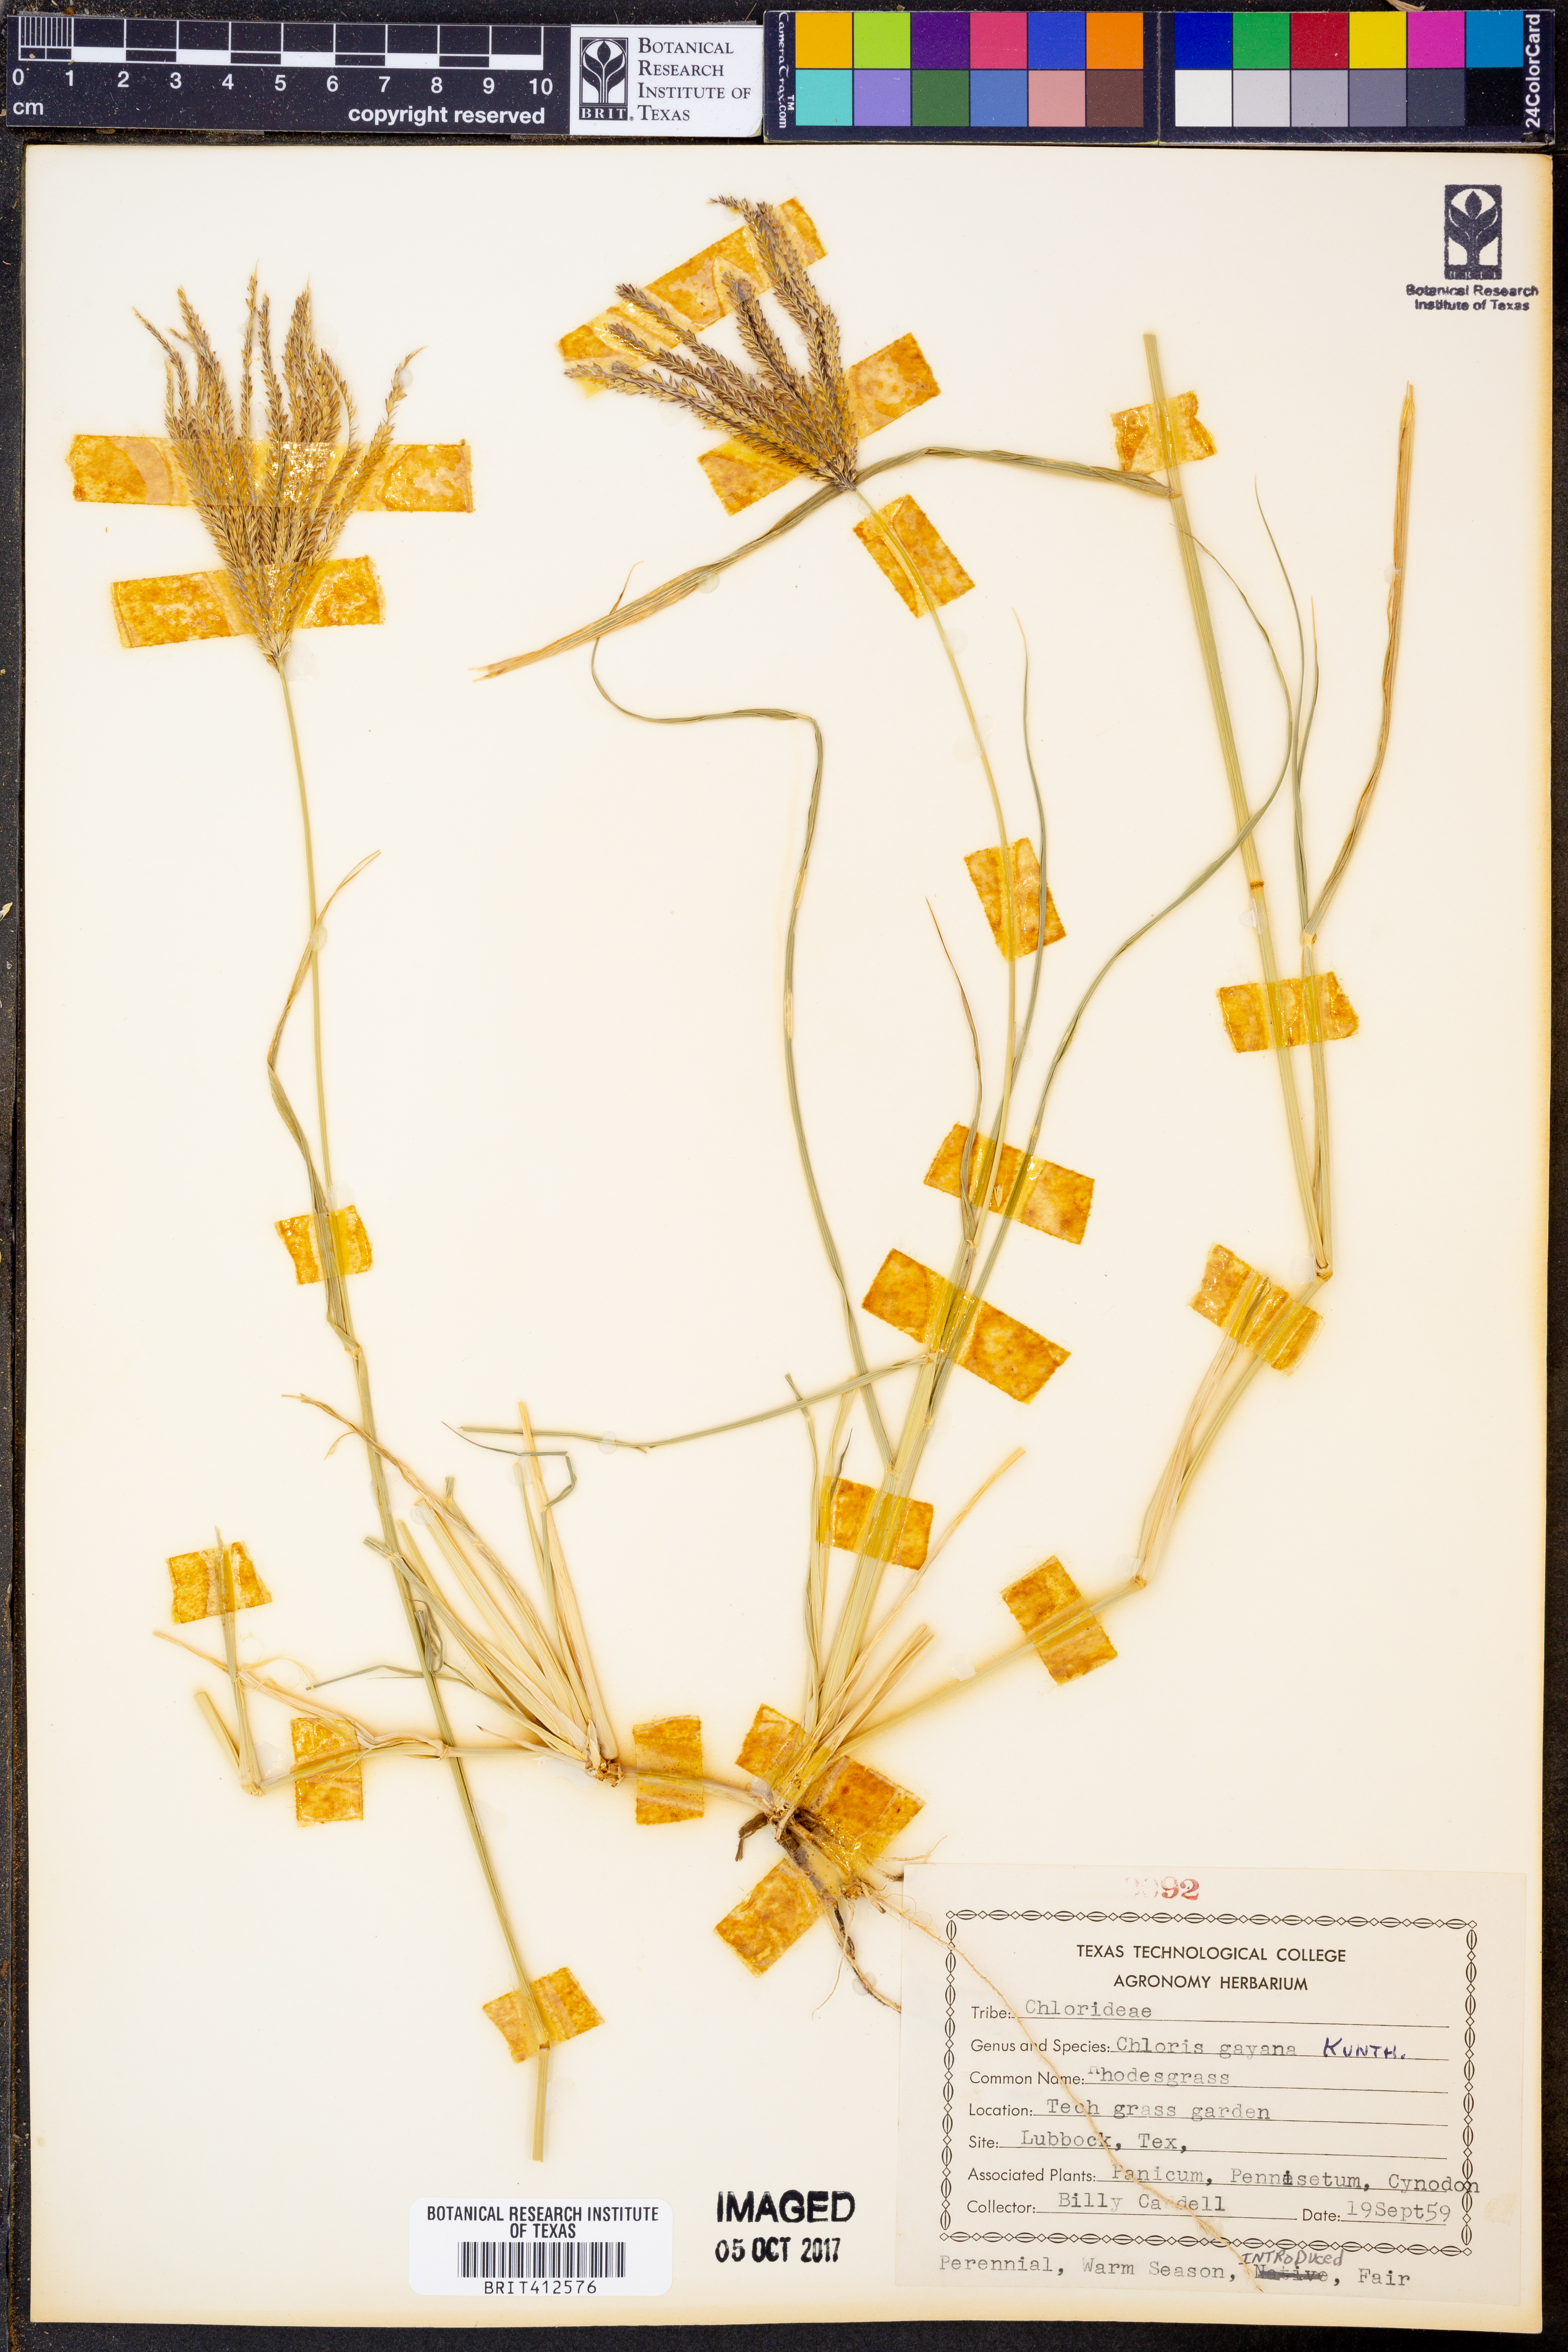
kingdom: Plantae
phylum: Tracheophyta
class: Liliopsida
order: Poales
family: Poaceae
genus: Chloris
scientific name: Chloris gayana
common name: Rhodes grass
